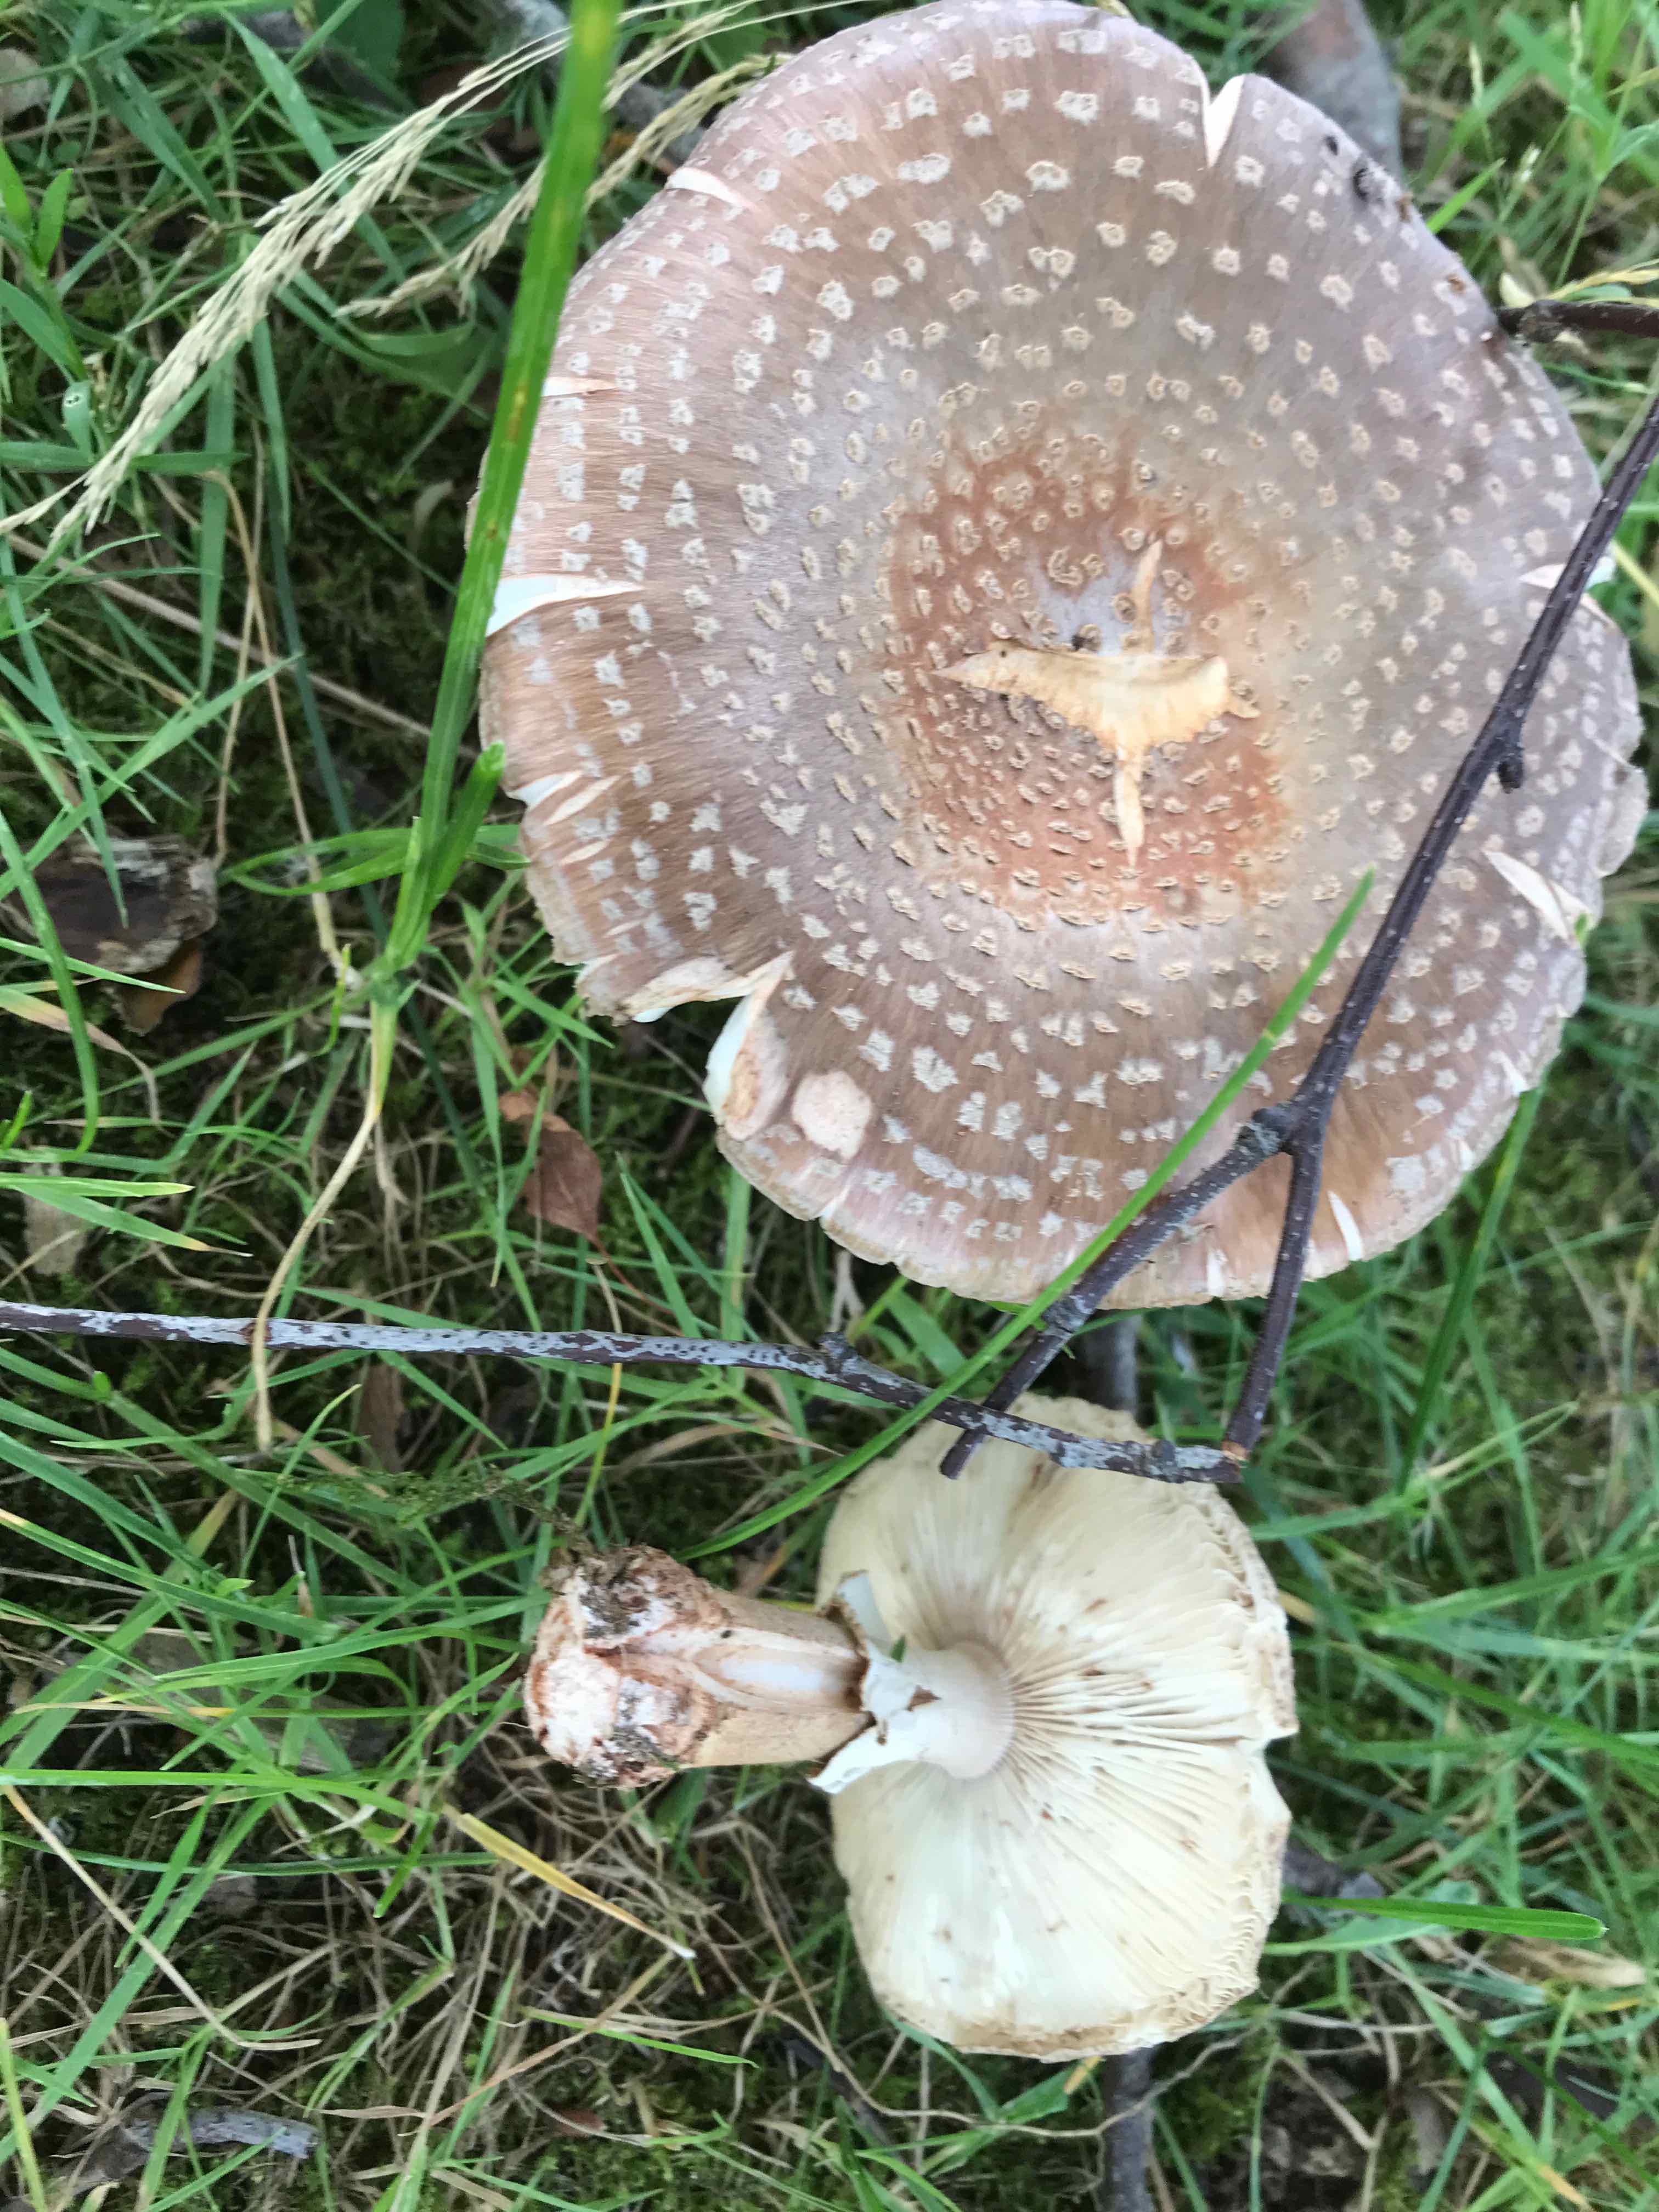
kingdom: Fungi
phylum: Basidiomycota
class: Agaricomycetes
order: Agaricales
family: Amanitaceae
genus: Amanita
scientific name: Amanita rubescens
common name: rødmende fluesvamp
